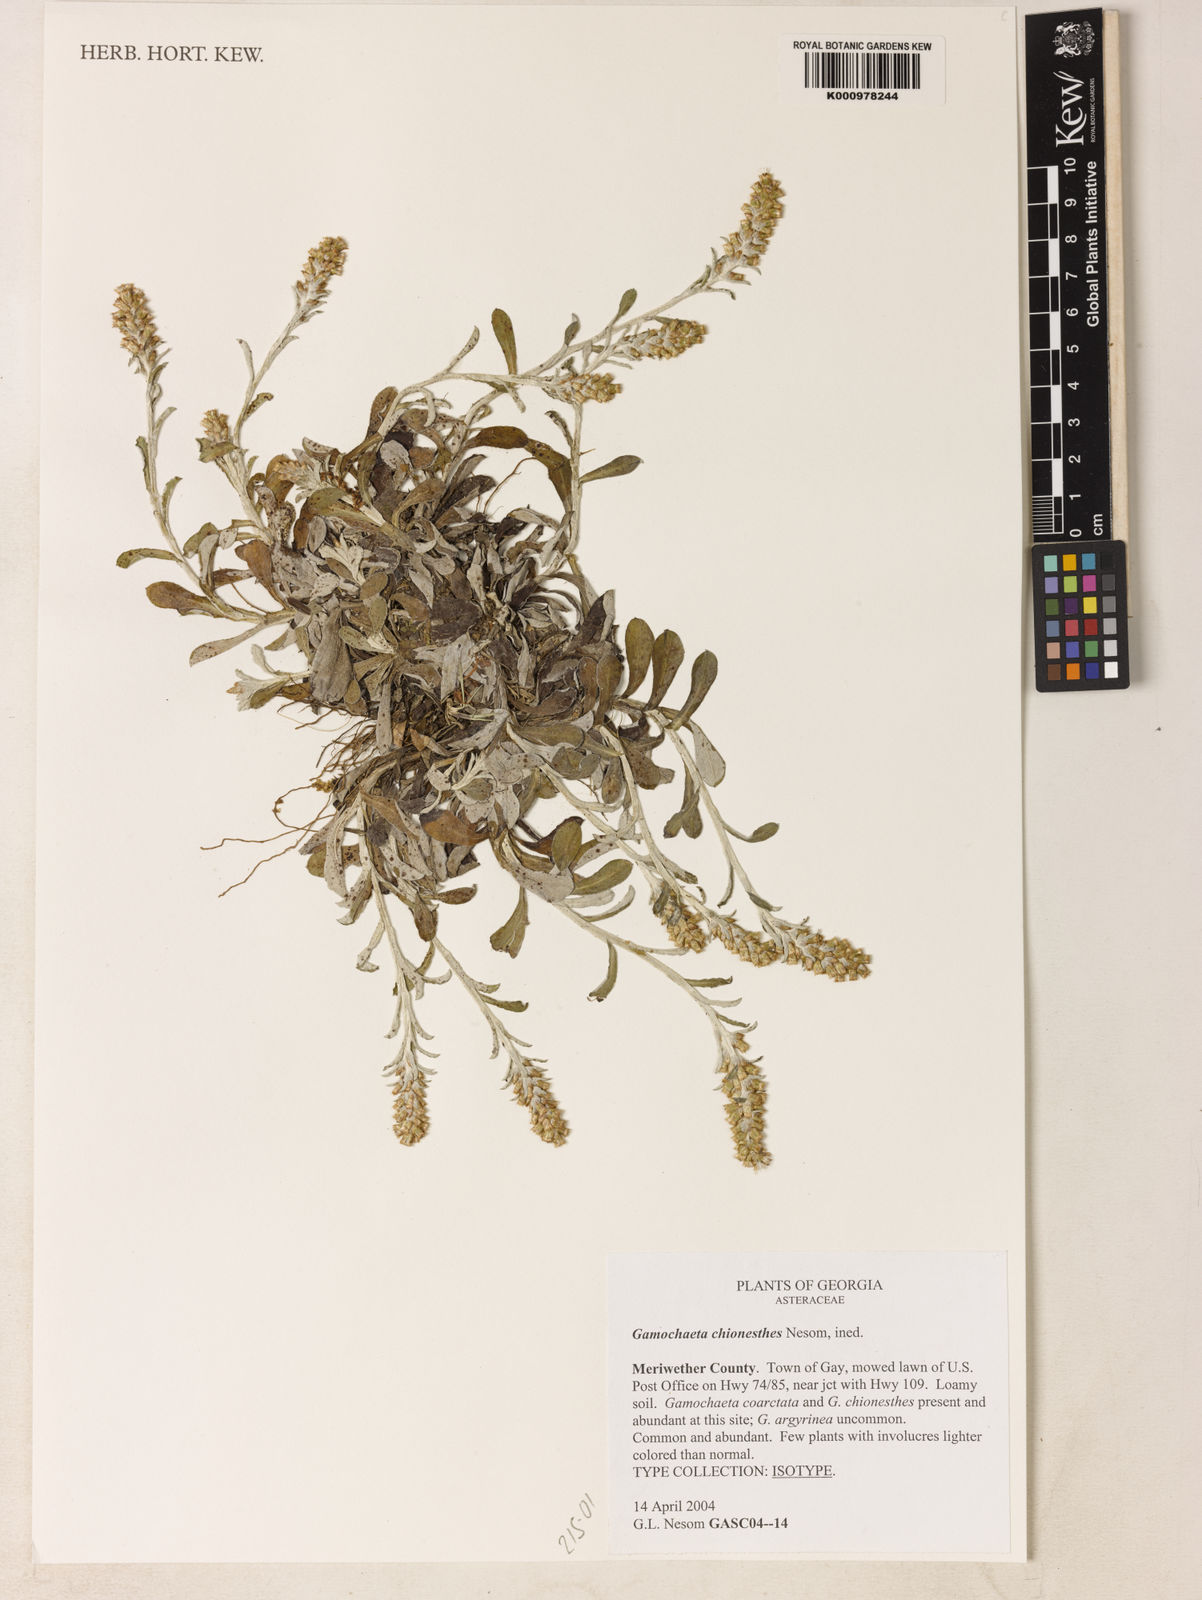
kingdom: Plantae
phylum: Tracheophyta
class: Magnoliopsida
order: Asterales
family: Asteraceae
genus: Gamochaeta
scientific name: Gamochaeta chionesthes
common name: Gray everlasting
